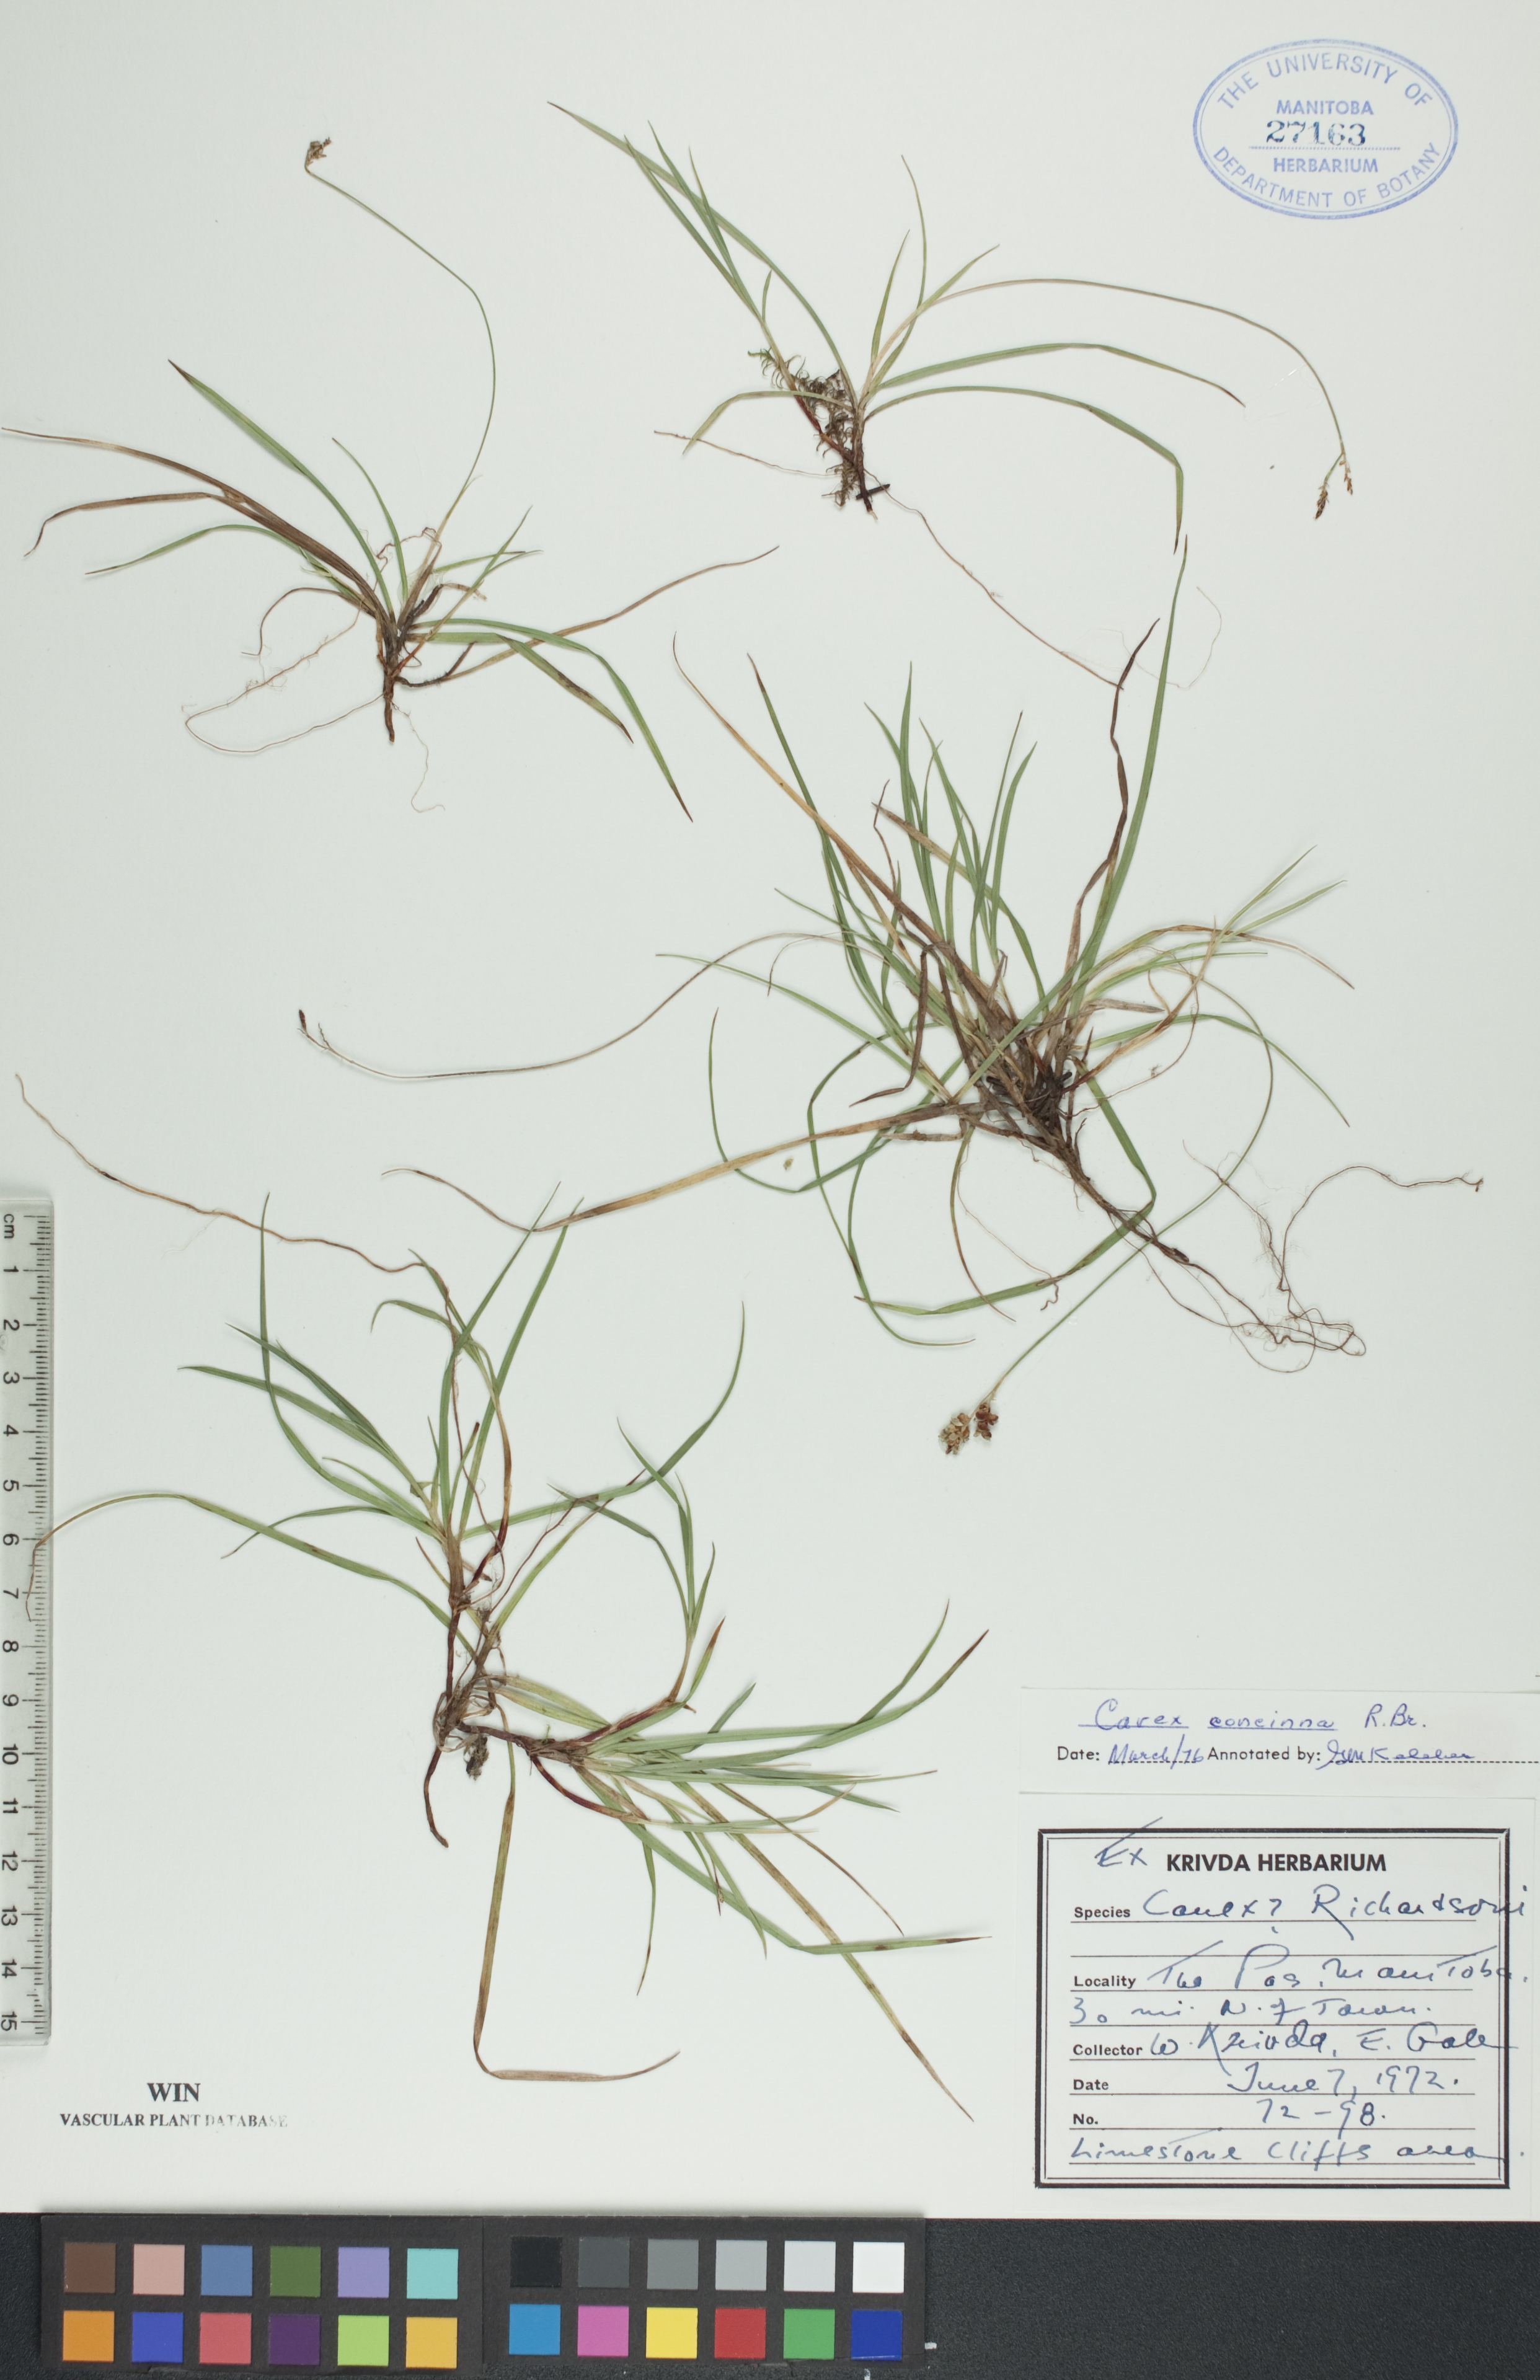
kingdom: Plantae
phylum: Tracheophyta
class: Liliopsida
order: Poales
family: Cyperaceae
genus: Carex
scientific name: Carex concinna
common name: Beautiful sedge
